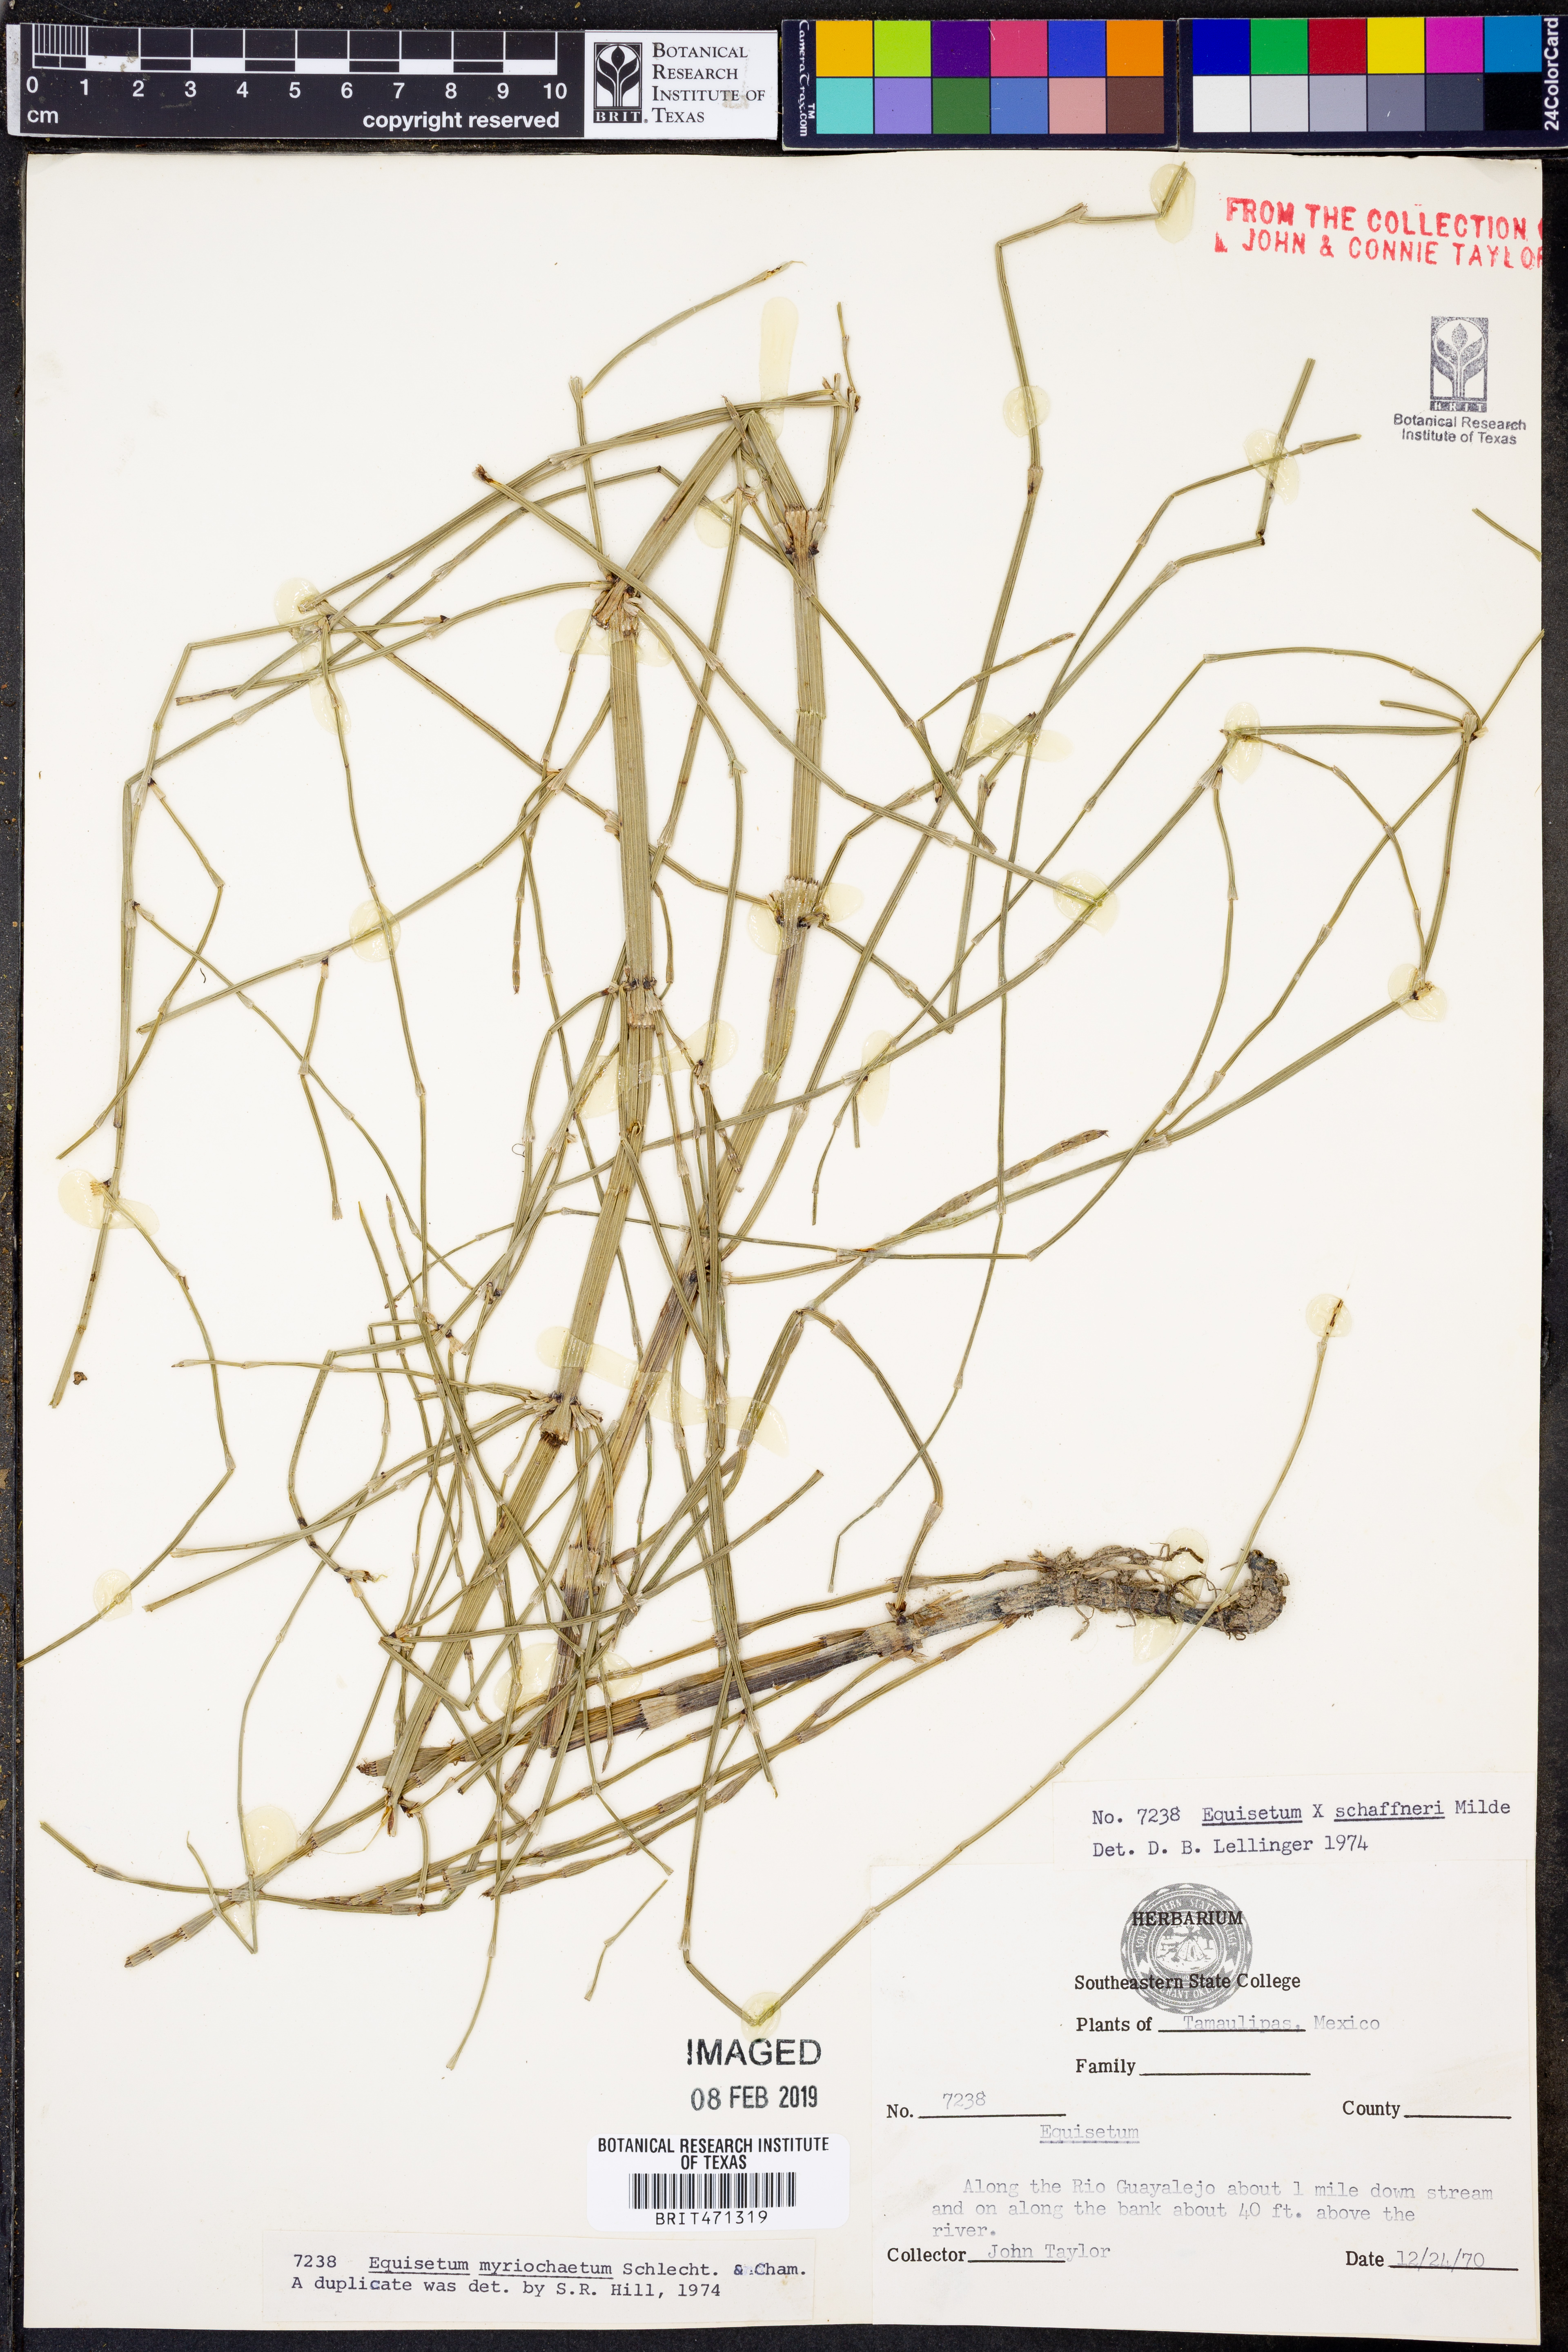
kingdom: Plantae
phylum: Tracheophyta
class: Polypodiopsida
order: Equisetales
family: Equisetaceae
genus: Equisetum
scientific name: Equisetum myriochaetum
